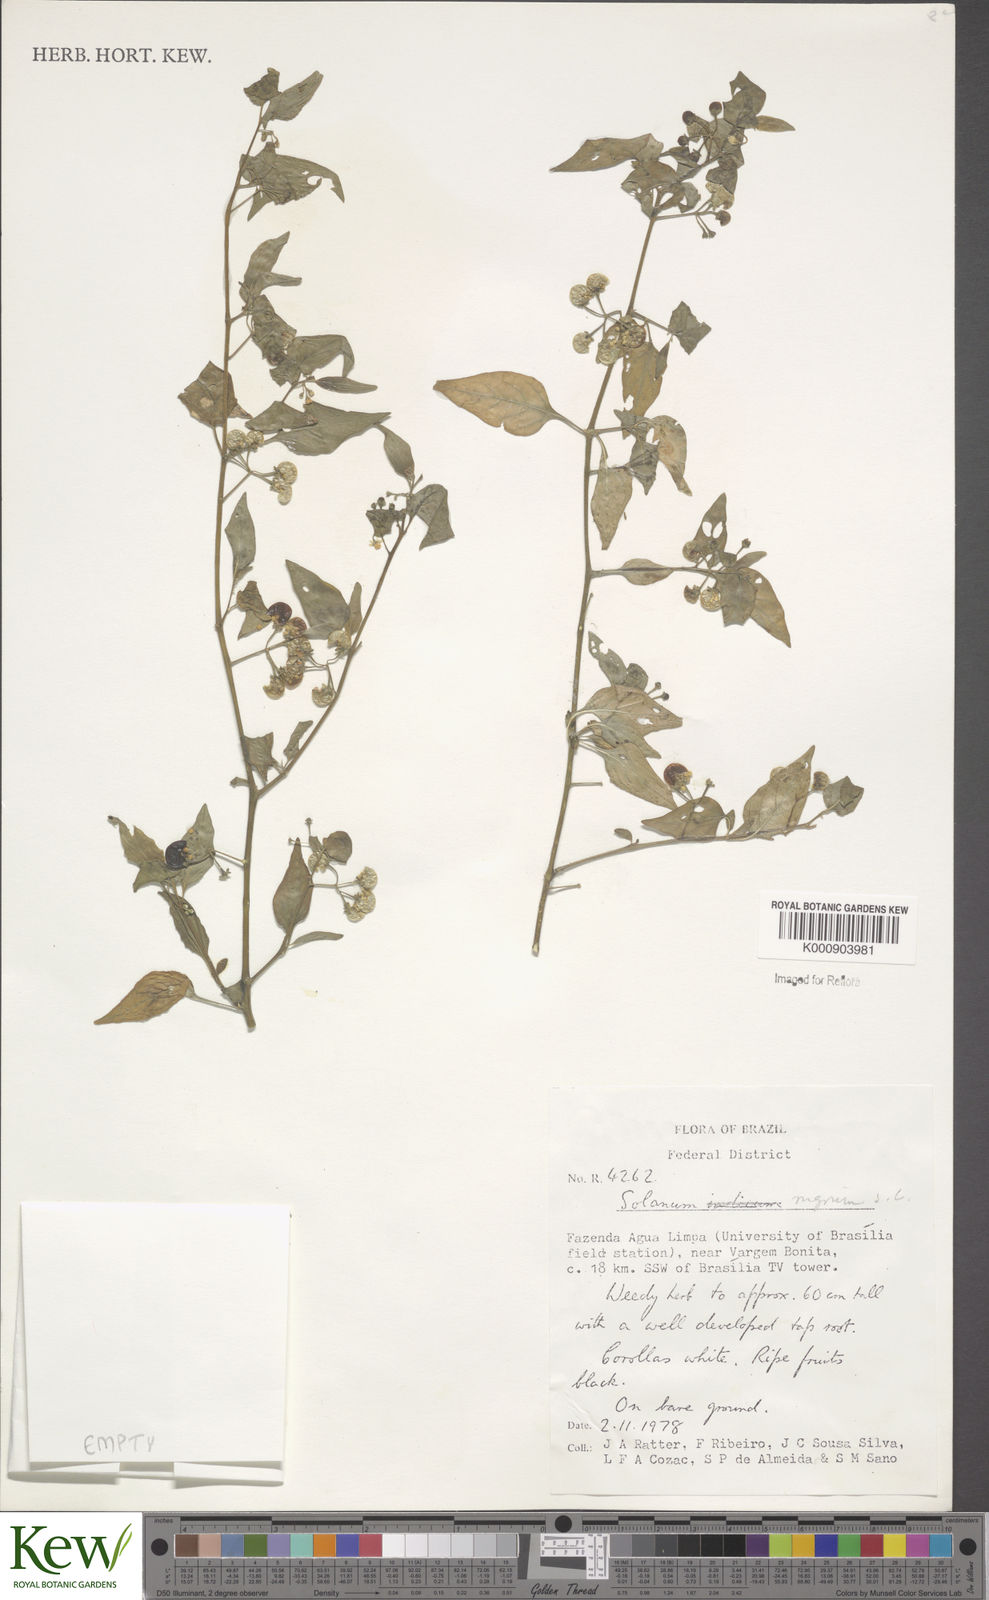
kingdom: Plantae
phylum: Tracheophyta
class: Magnoliopsida
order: Solanales
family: Solanaceae
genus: Solanum
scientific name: Solanum nigrum
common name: Black nightshade
